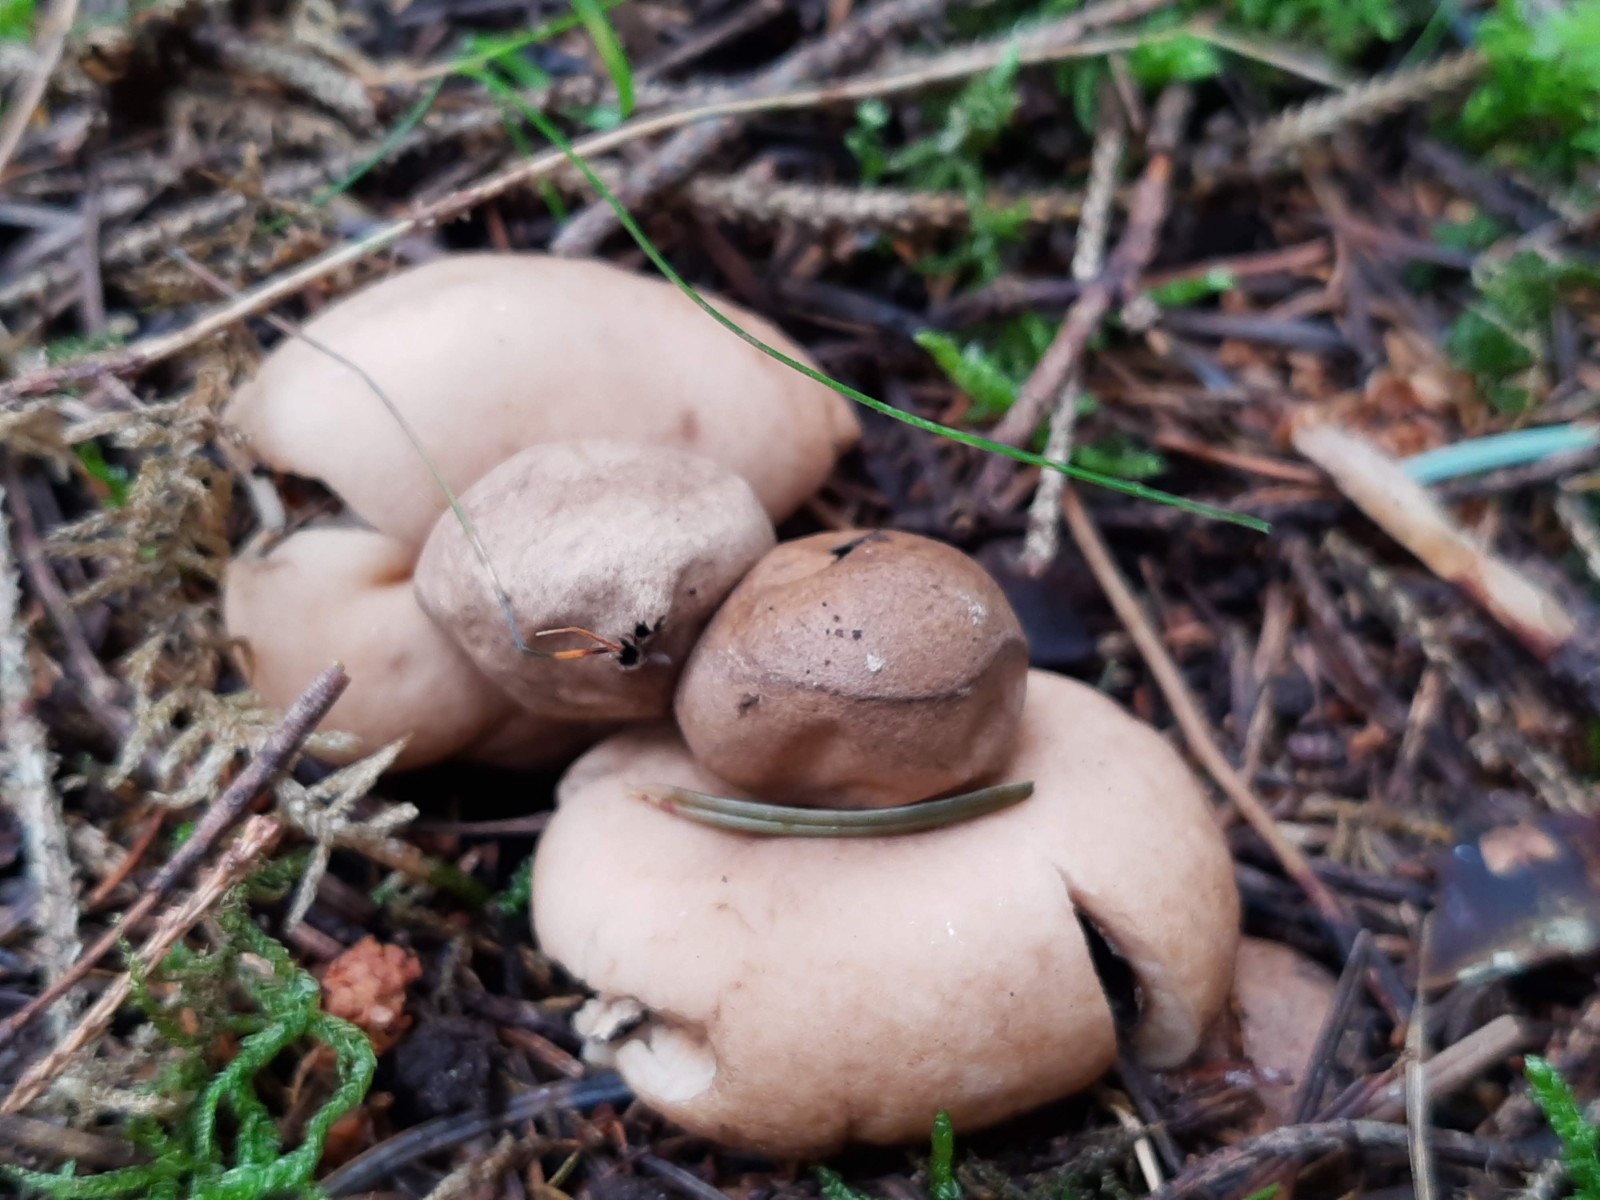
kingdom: Fungi
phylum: Basidiomycota
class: Agaricomycetes
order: Geastrales
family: Geastraceae
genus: Geastrum
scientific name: Geastrum fimbriatum
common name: frynset stjernebold
